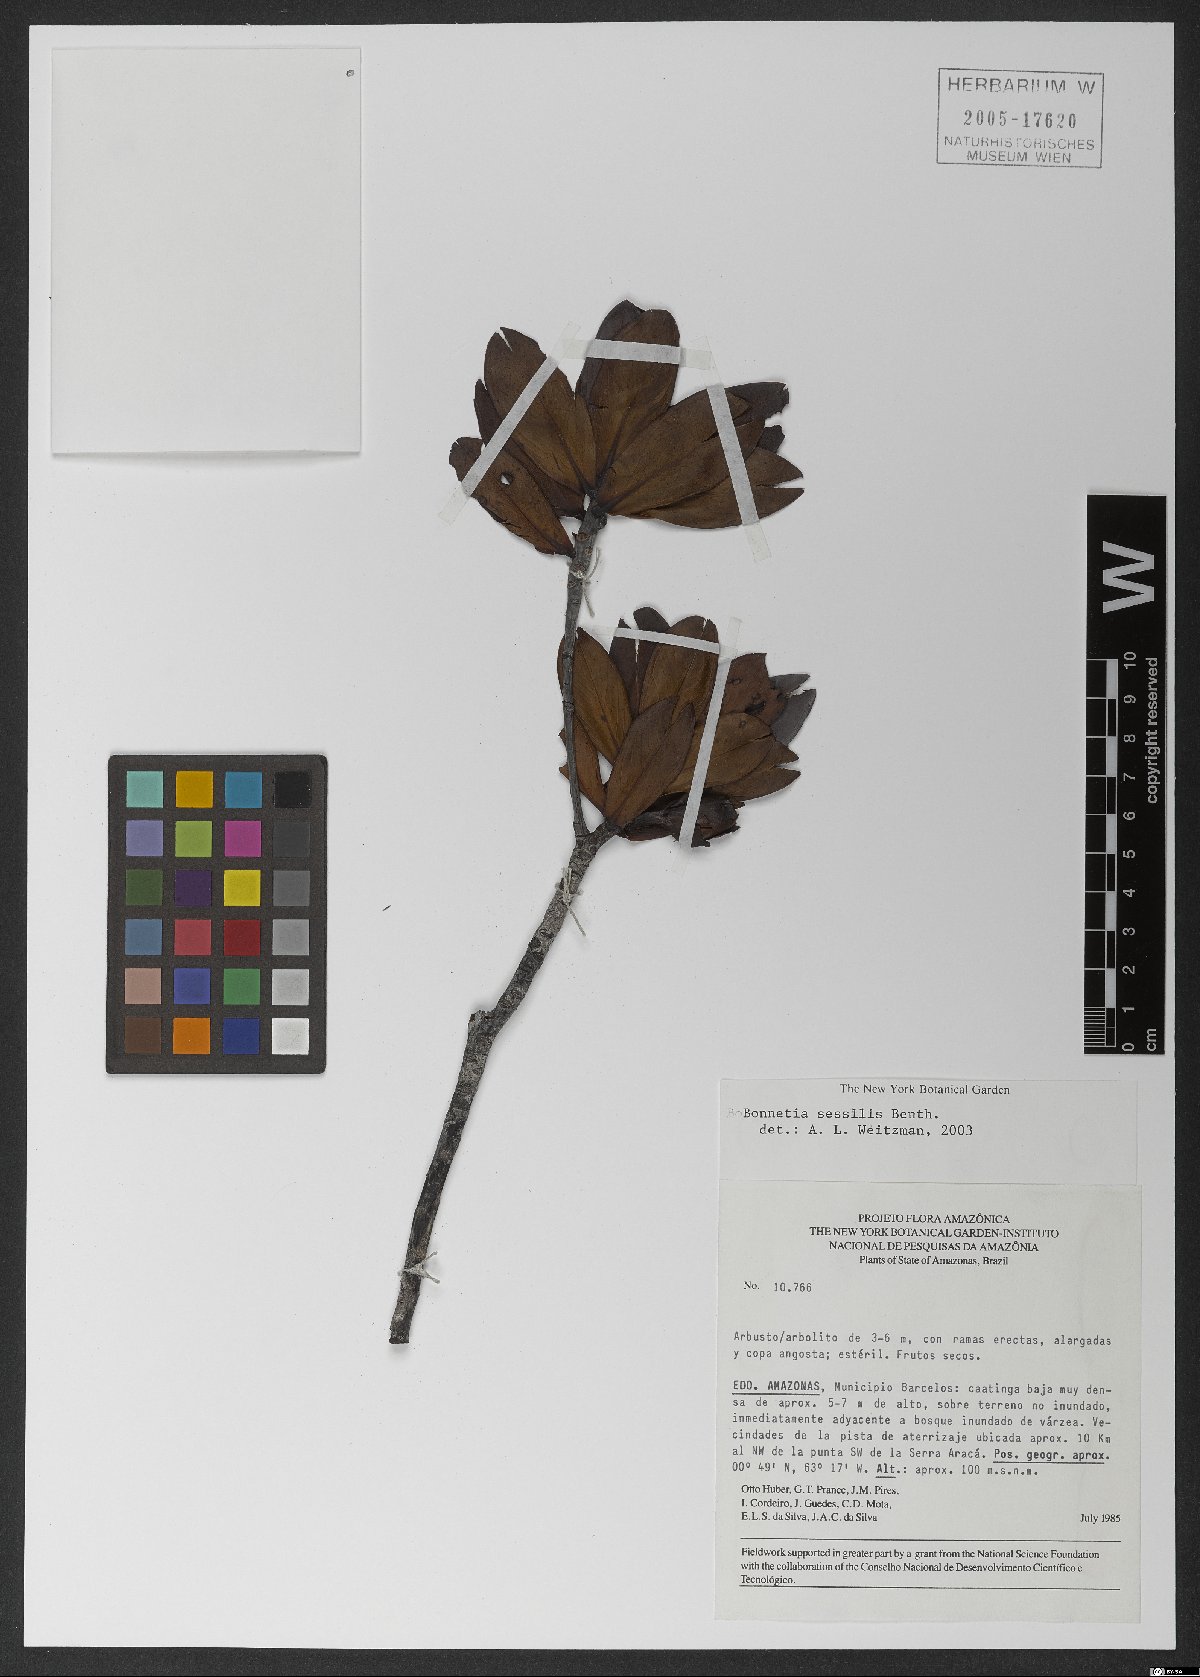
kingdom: Plantae
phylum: Tracheophyta
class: Magnoliopsida
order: Malpighiales
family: Bonnetiaceae
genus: Bonnetia
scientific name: Bonnetia sessilis
